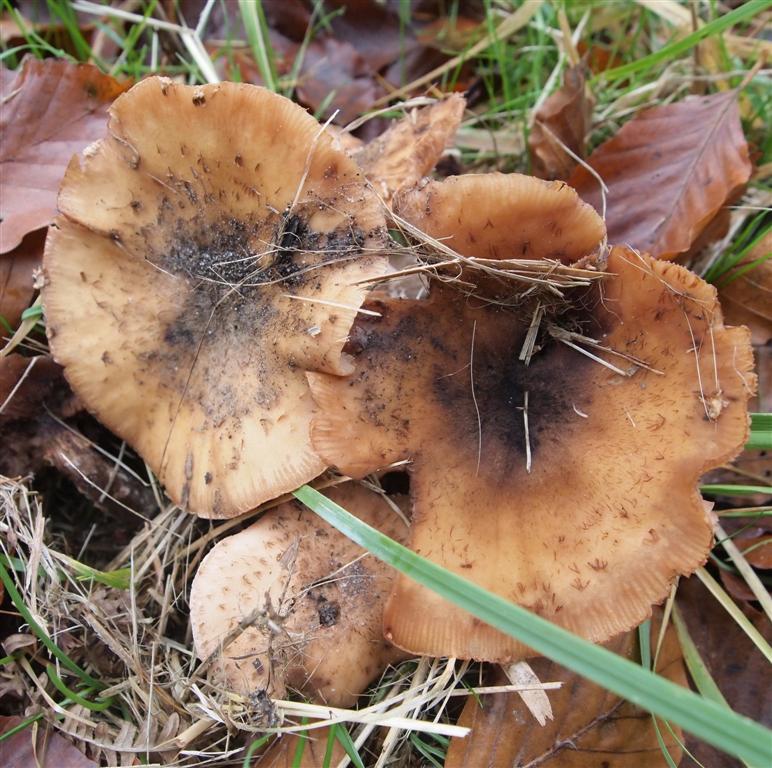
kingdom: Fungi
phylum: Basidiomycota
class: Agaricomycetes
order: Agaricales
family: Physalacriaceae
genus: Armillaria
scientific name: Armillaria lutea
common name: køllestokket honningsvamp
